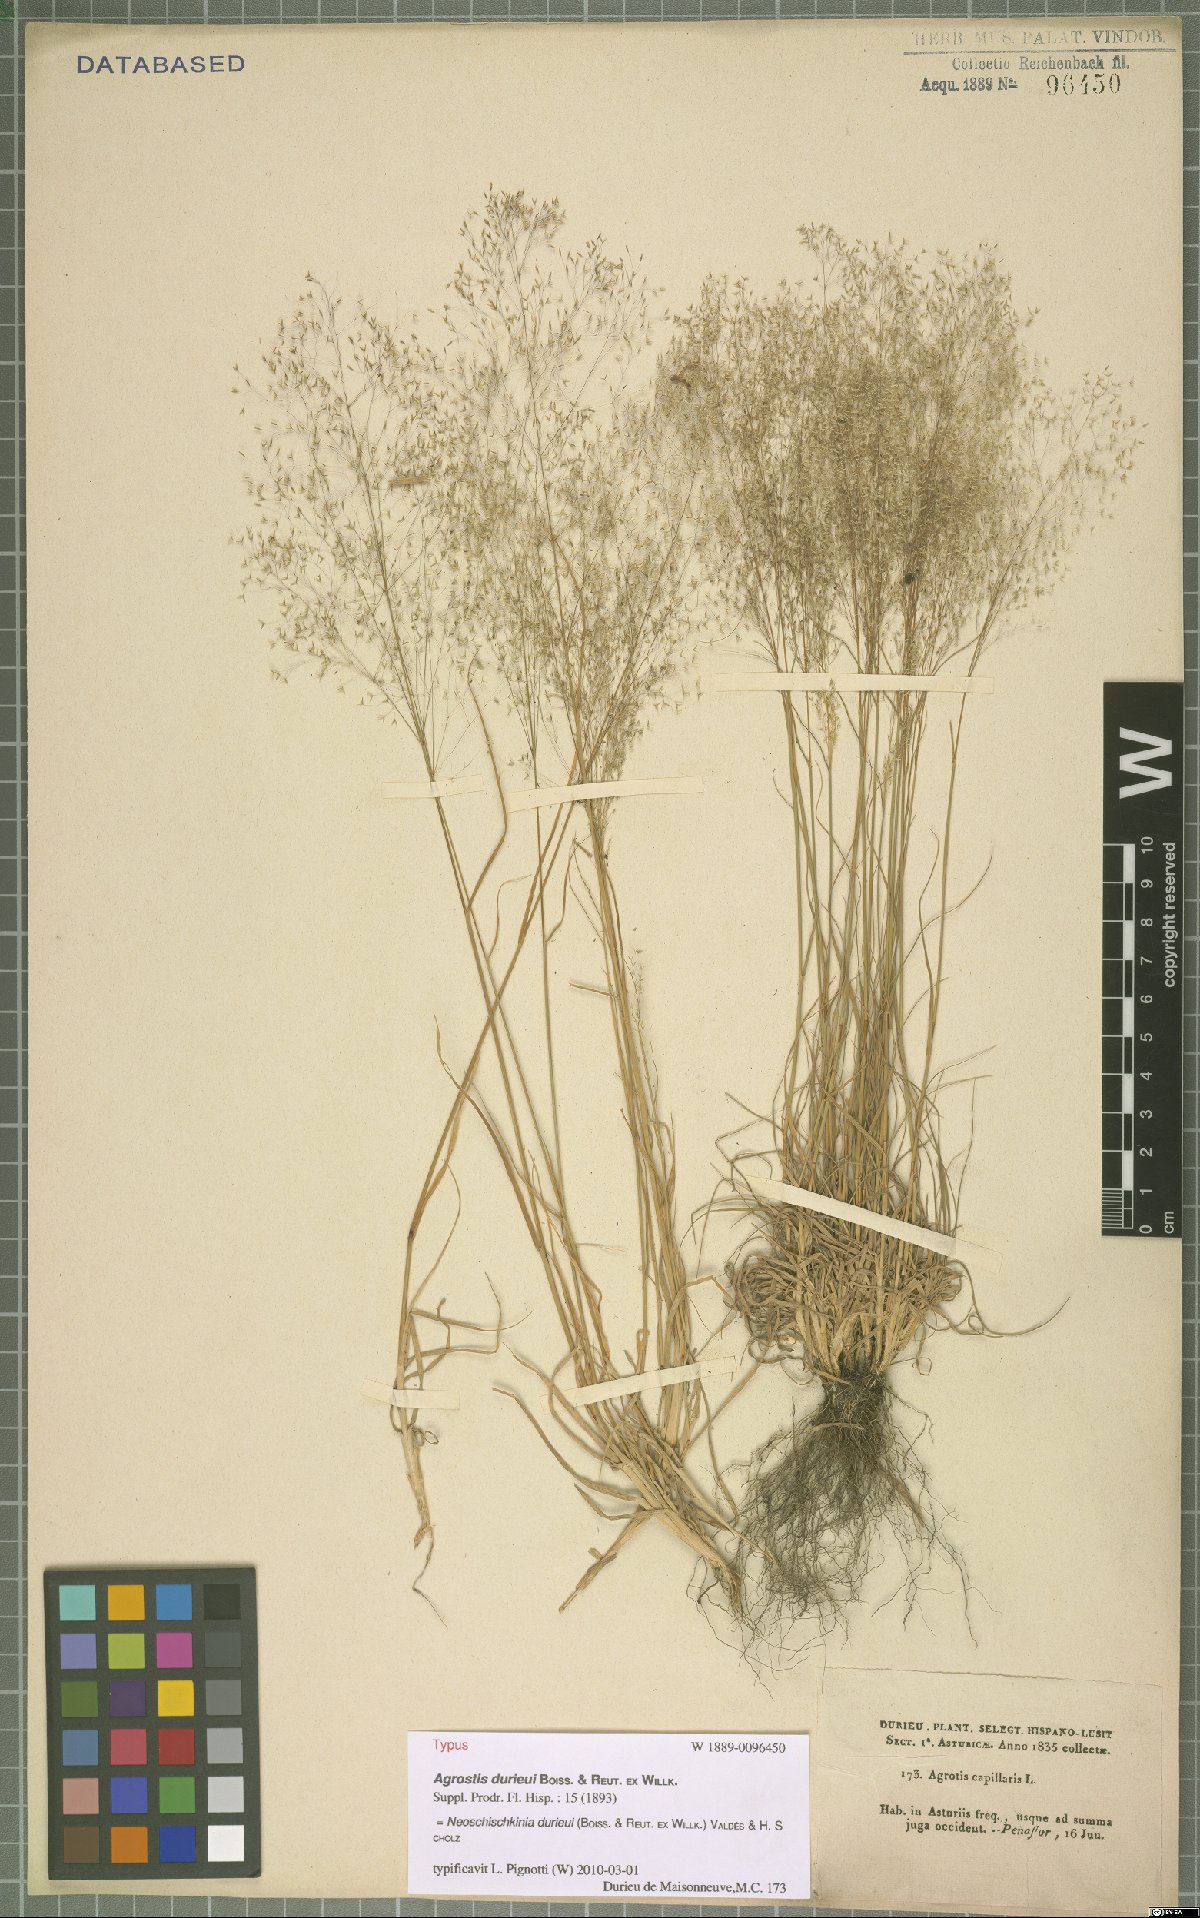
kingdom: Plantae
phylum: Tracheophyta
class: Liliopsida
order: Poales
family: Poaceae
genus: Agrostis
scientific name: Agrostis castellana
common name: Highland bent
